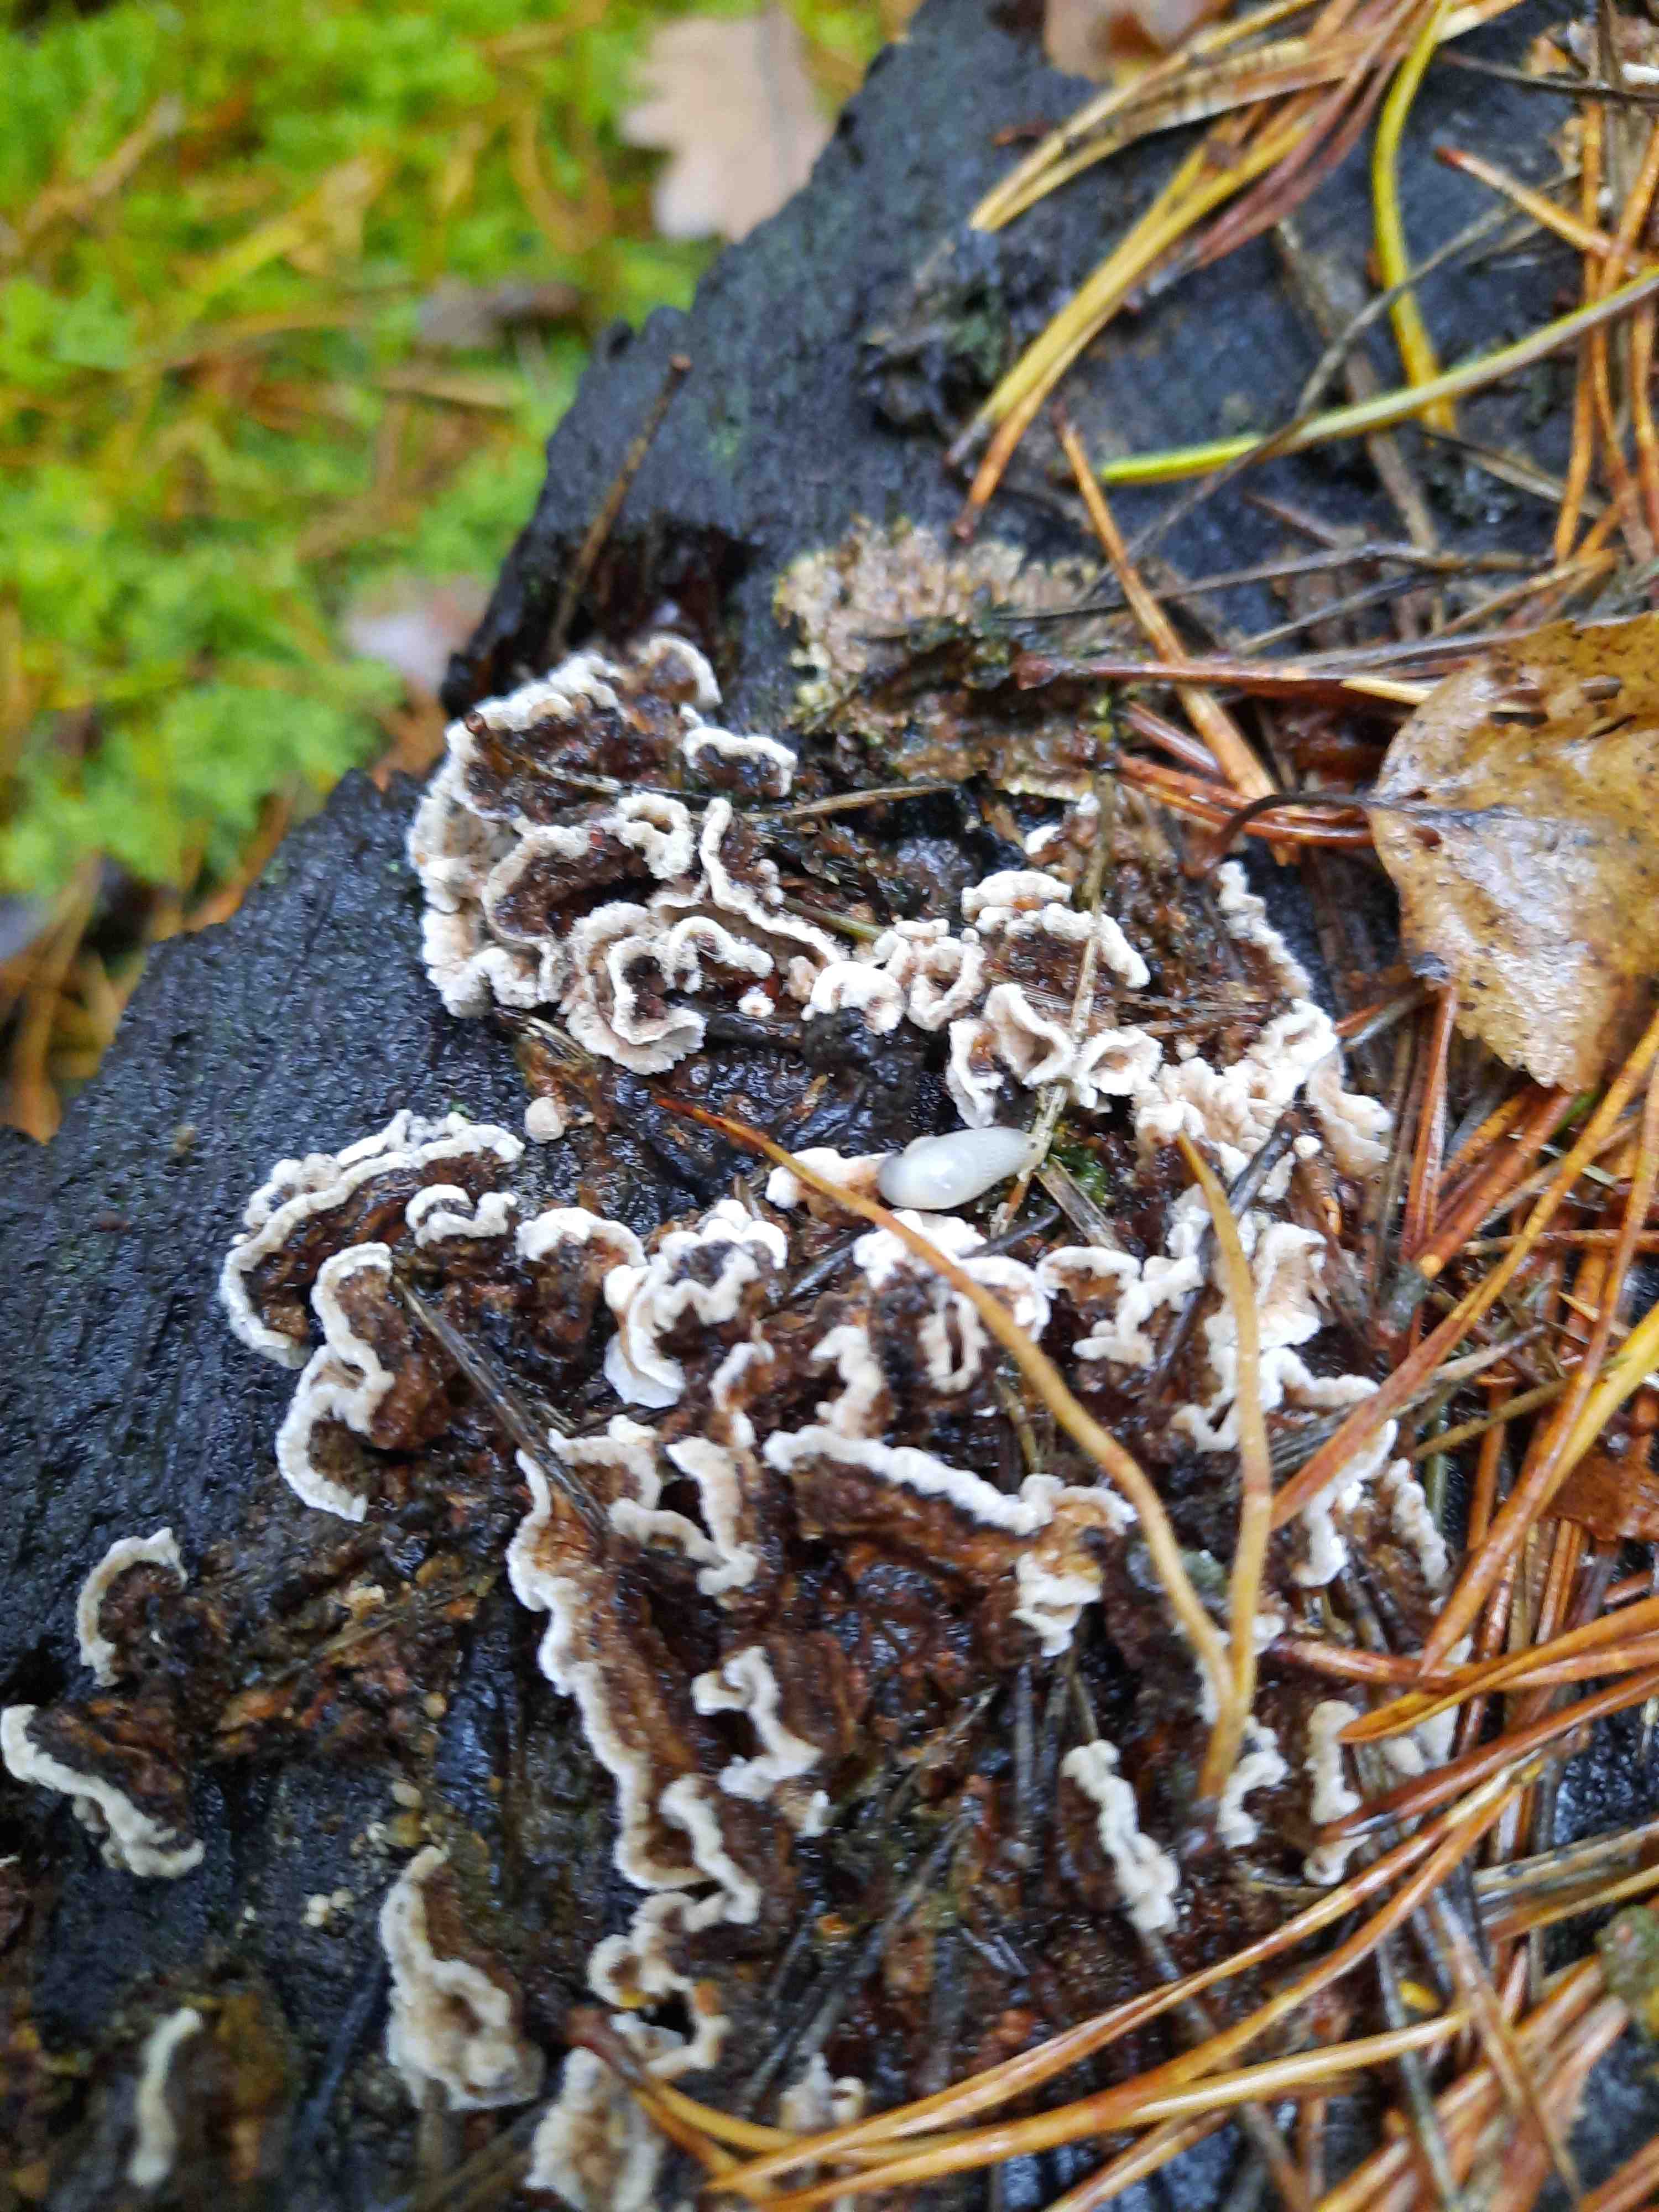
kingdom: Fungi
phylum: Basidiomycota
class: Agaricomycetes
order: Russulales
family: Stereaceae
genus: Stereum
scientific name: Stereum sanguinolentum
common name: blødende lædersvamp
